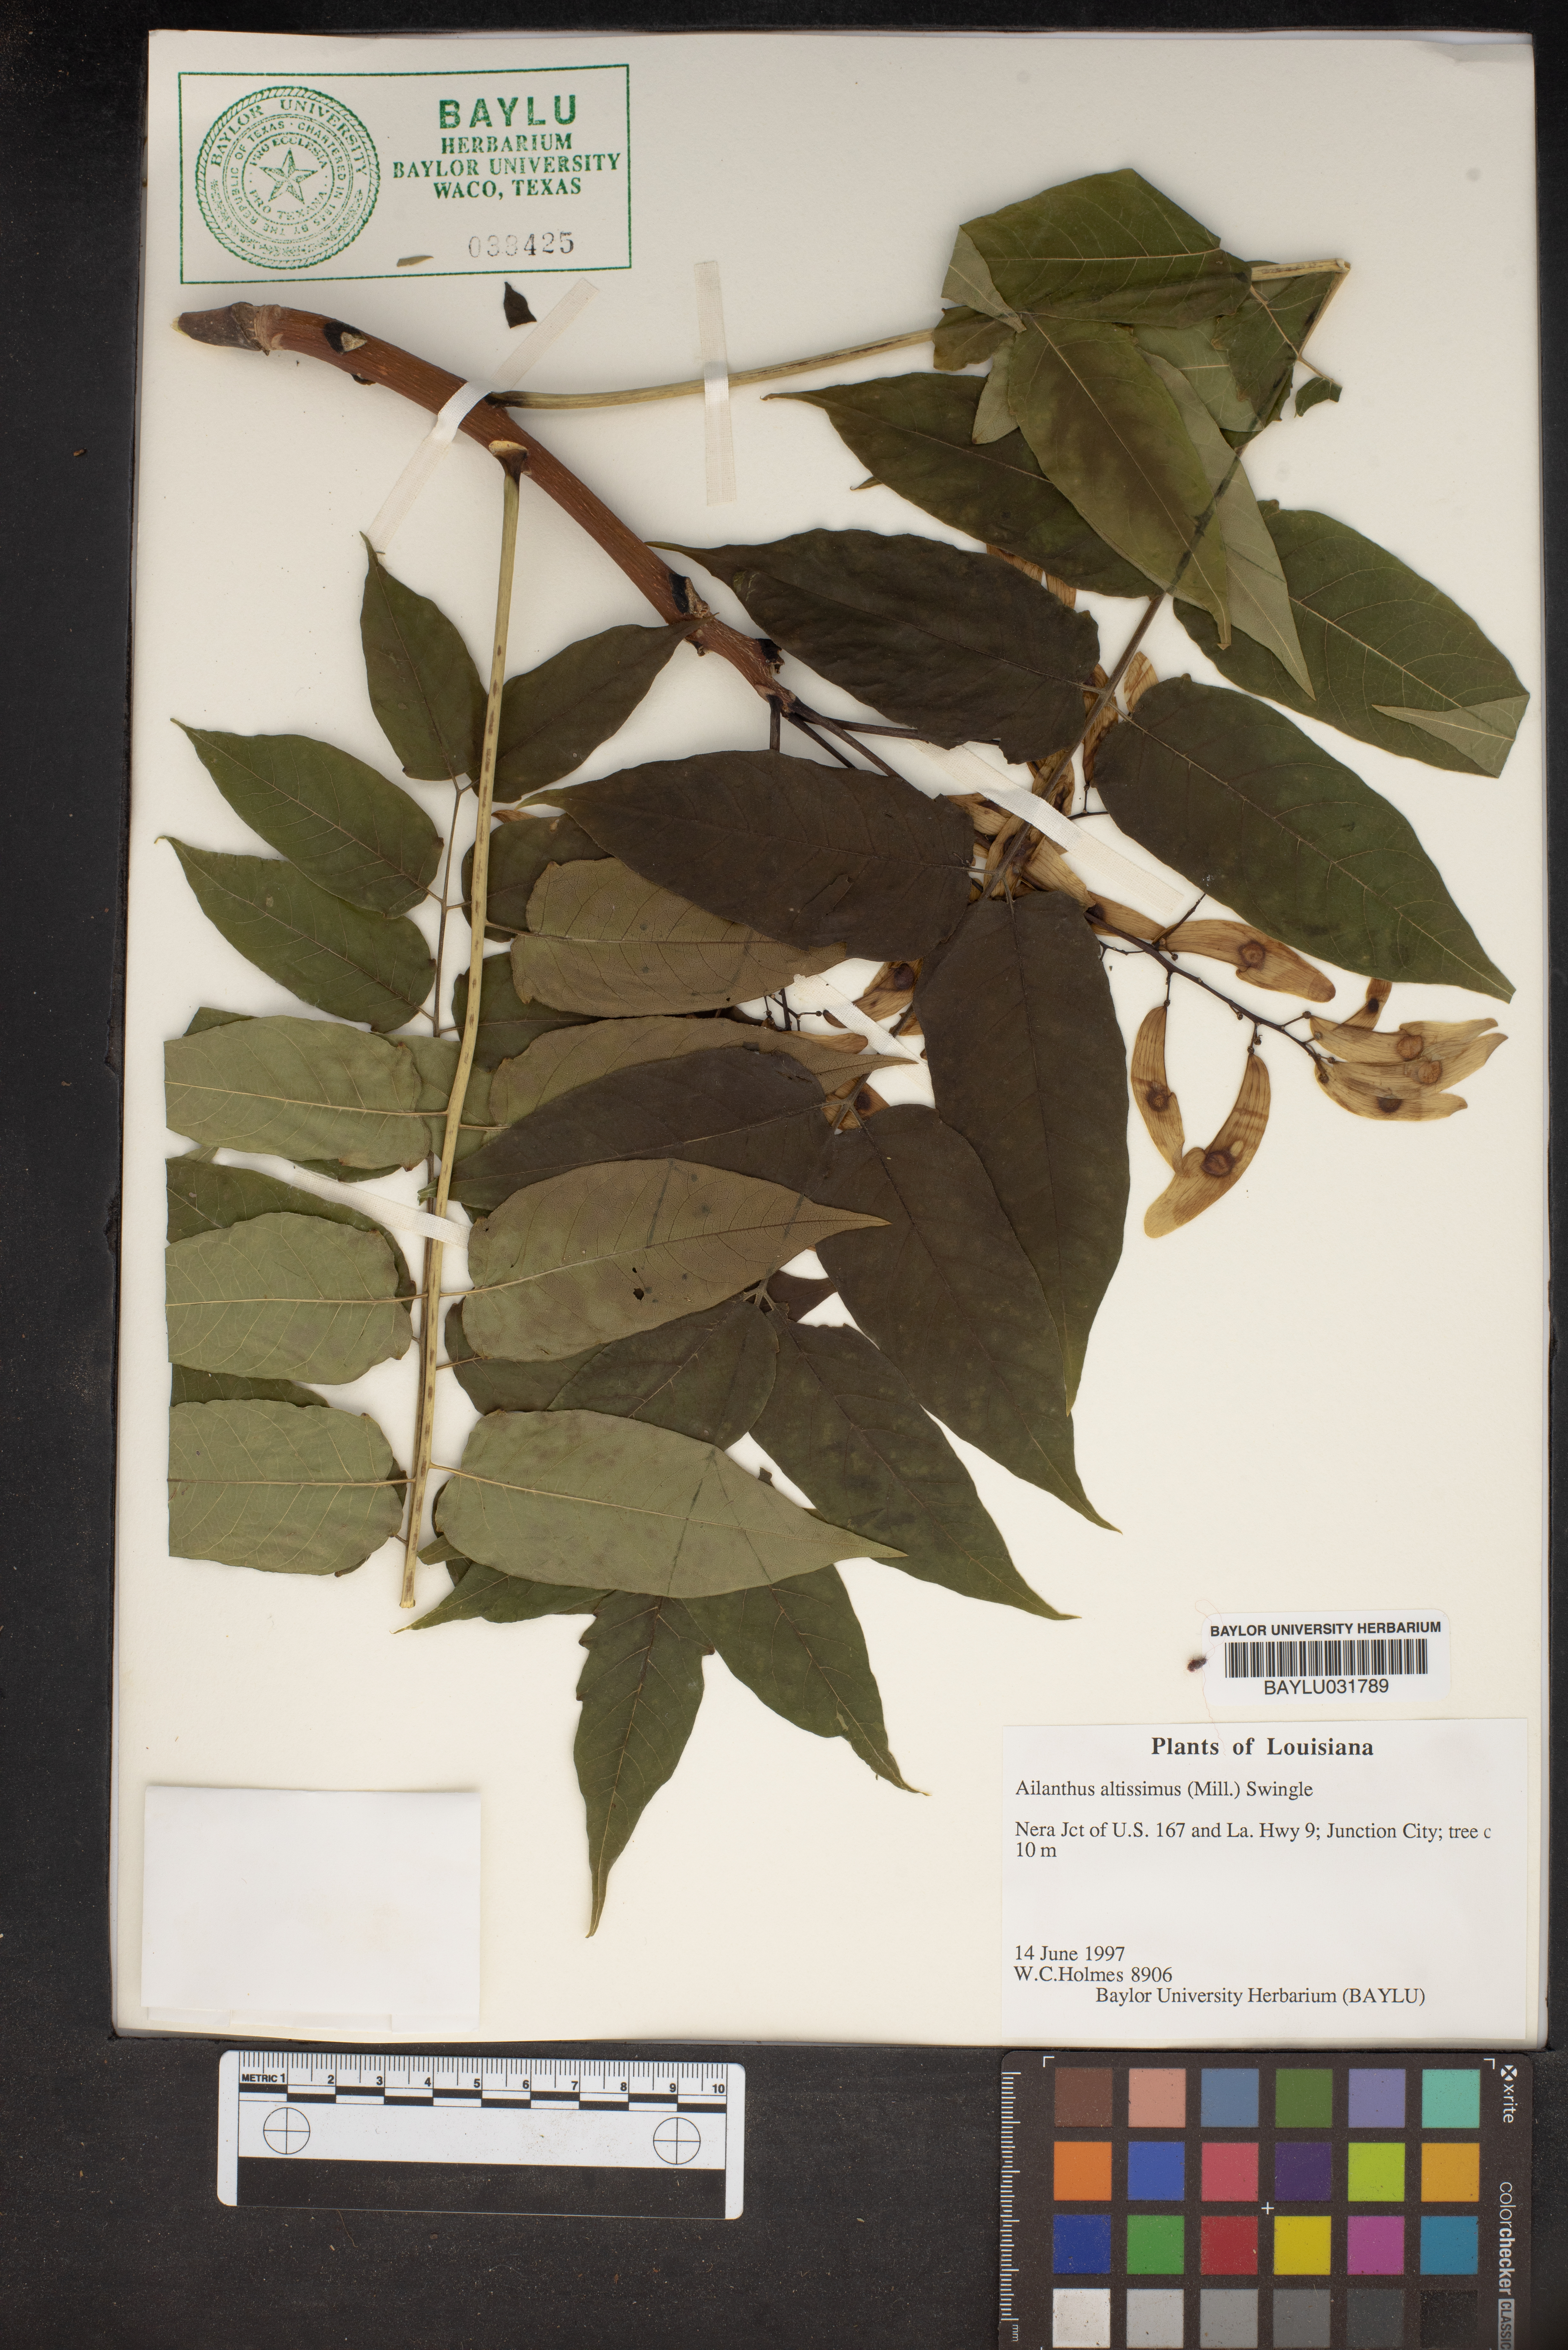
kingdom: Plantae
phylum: Tracheophyta
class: Magnoliopsida
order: Sapindales
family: Simaroubaceae
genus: Ailanthus
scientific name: Ailanthus altissima
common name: Tree-of-heaven
